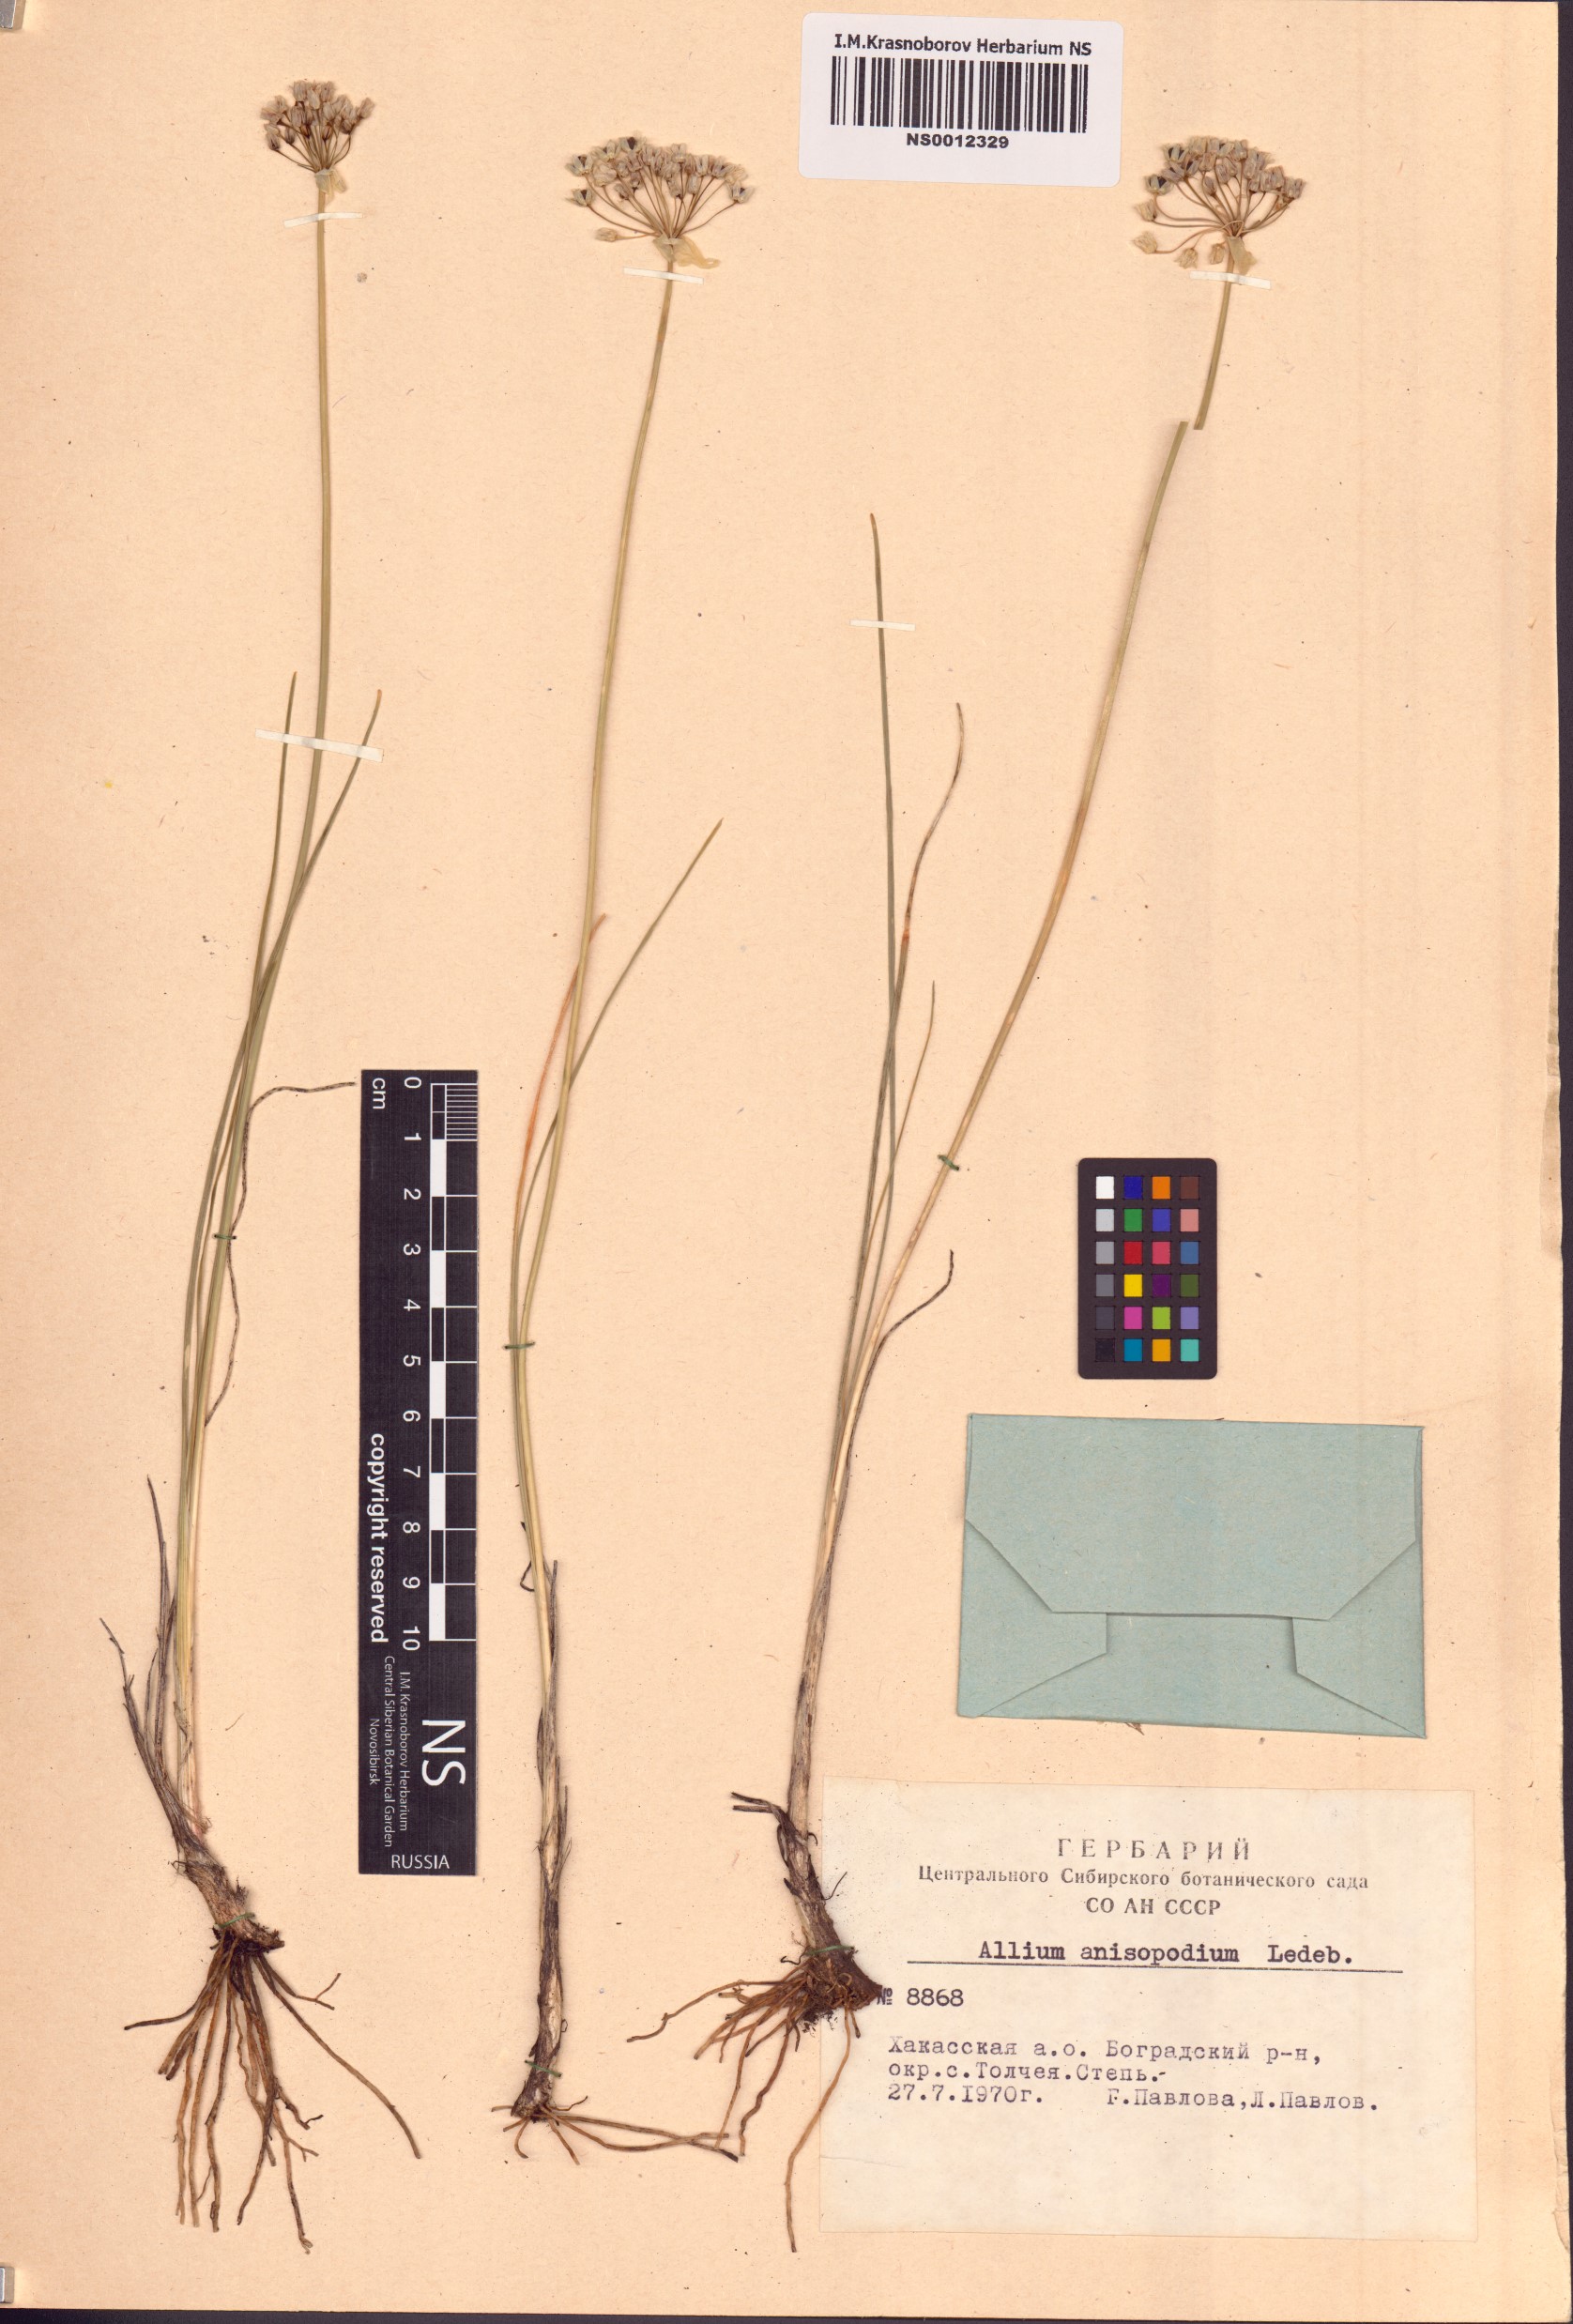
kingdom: Plantae
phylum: Tracheophyta
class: Liliopsida
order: Asparagales
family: Amaryllidaceae
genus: Allium
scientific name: Allium anisopodium
